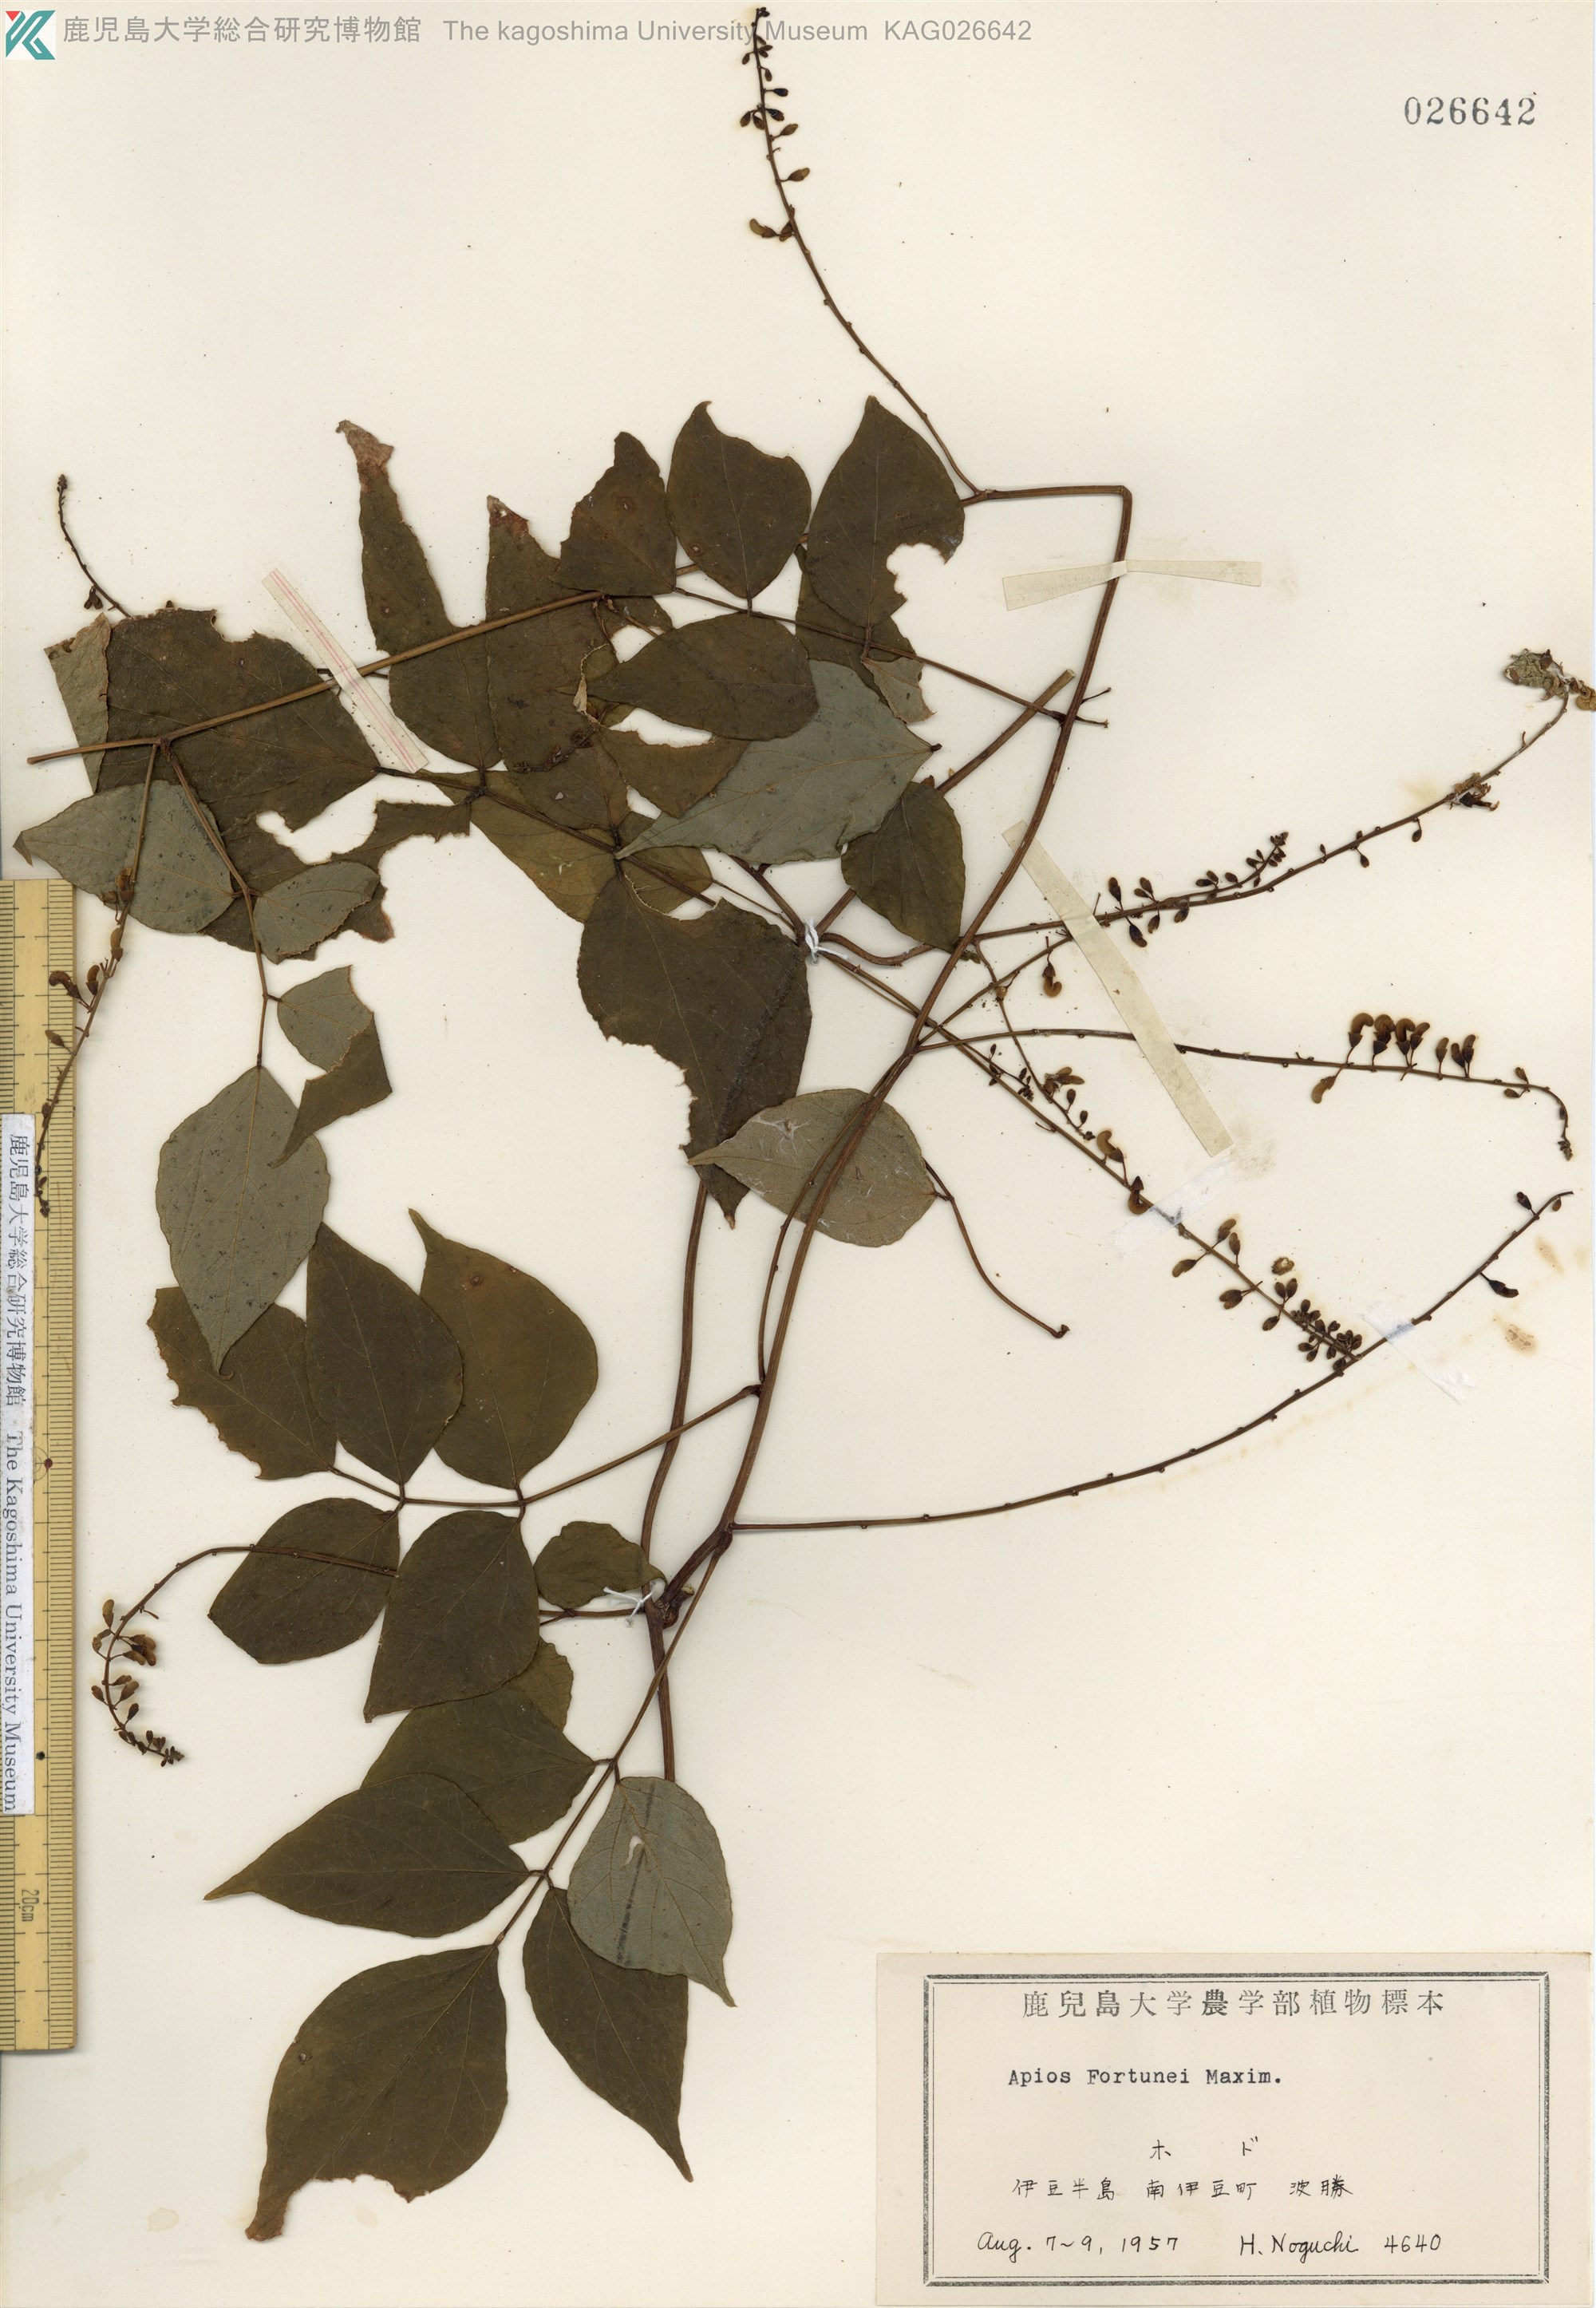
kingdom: Plantae
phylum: Tracheophyta
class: Magnoliopsida
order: Fabales
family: Fabaceae
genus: Apios
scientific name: Apios fortunei
